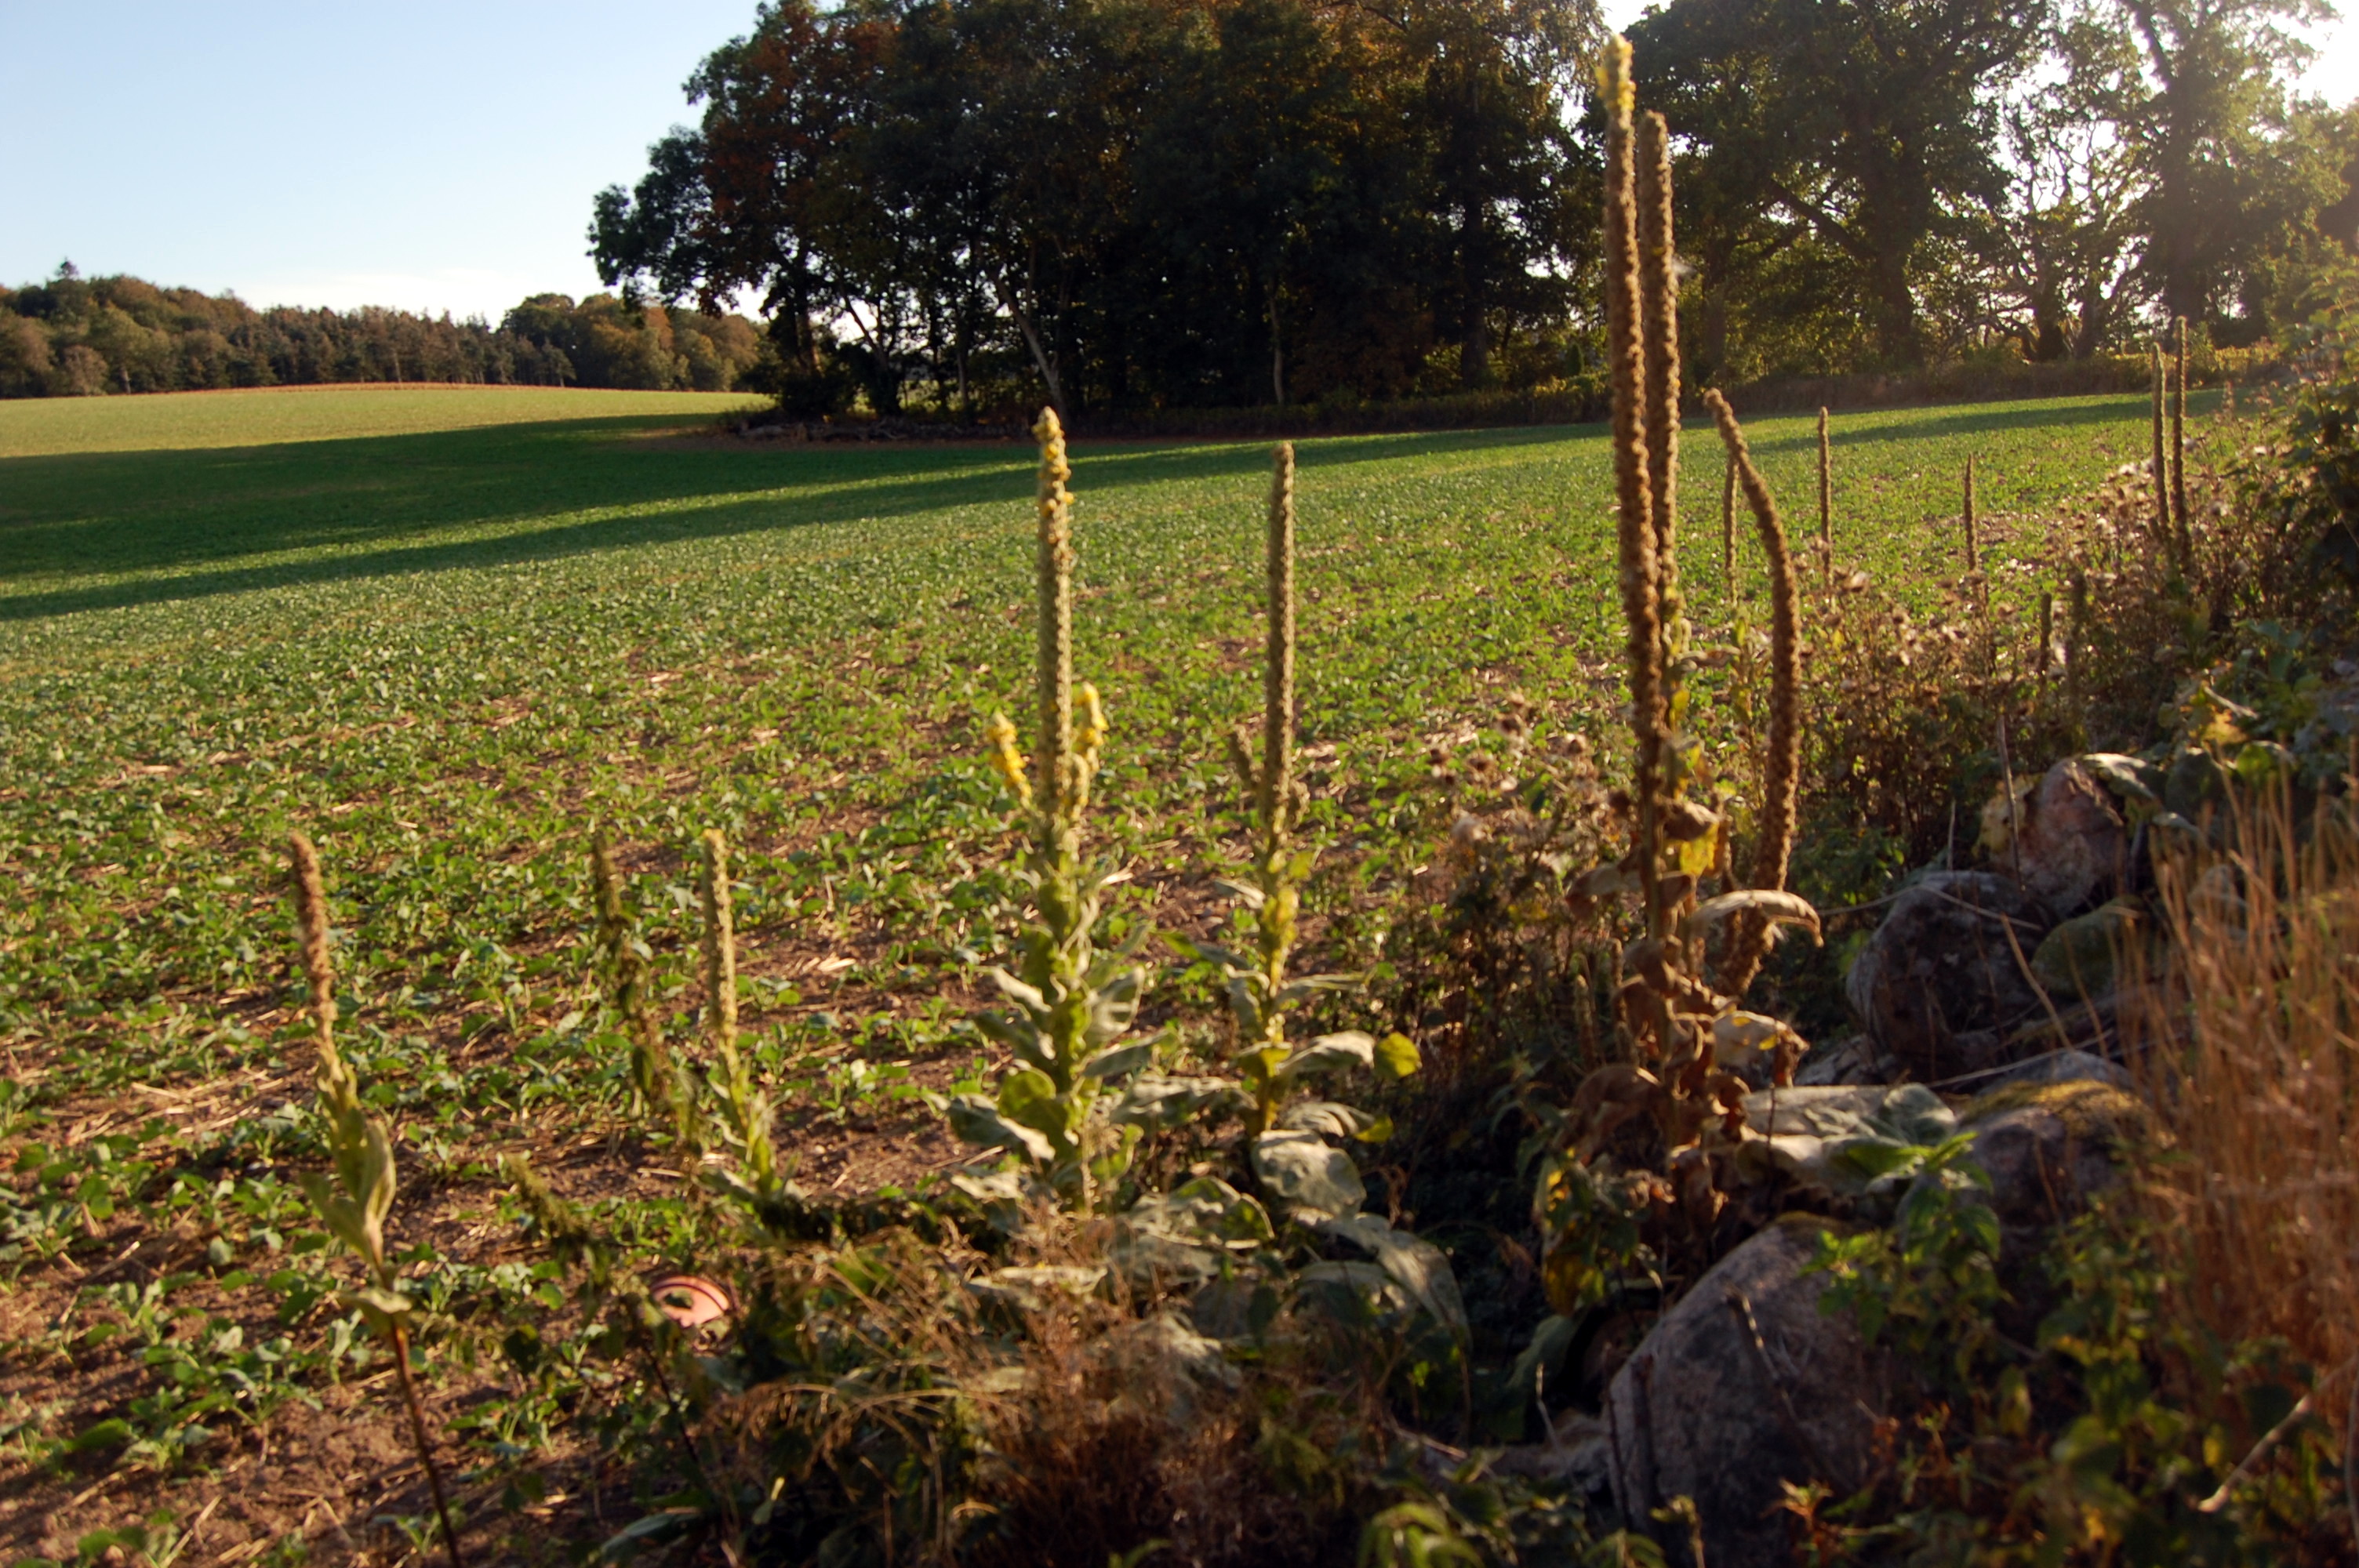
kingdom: Plantae
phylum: Tracheophyta
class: Magnoliopsida
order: Lamiales
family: Scrophulariaceae
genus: Verbascum
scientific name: Verbascum thapsus
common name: Common mullein
